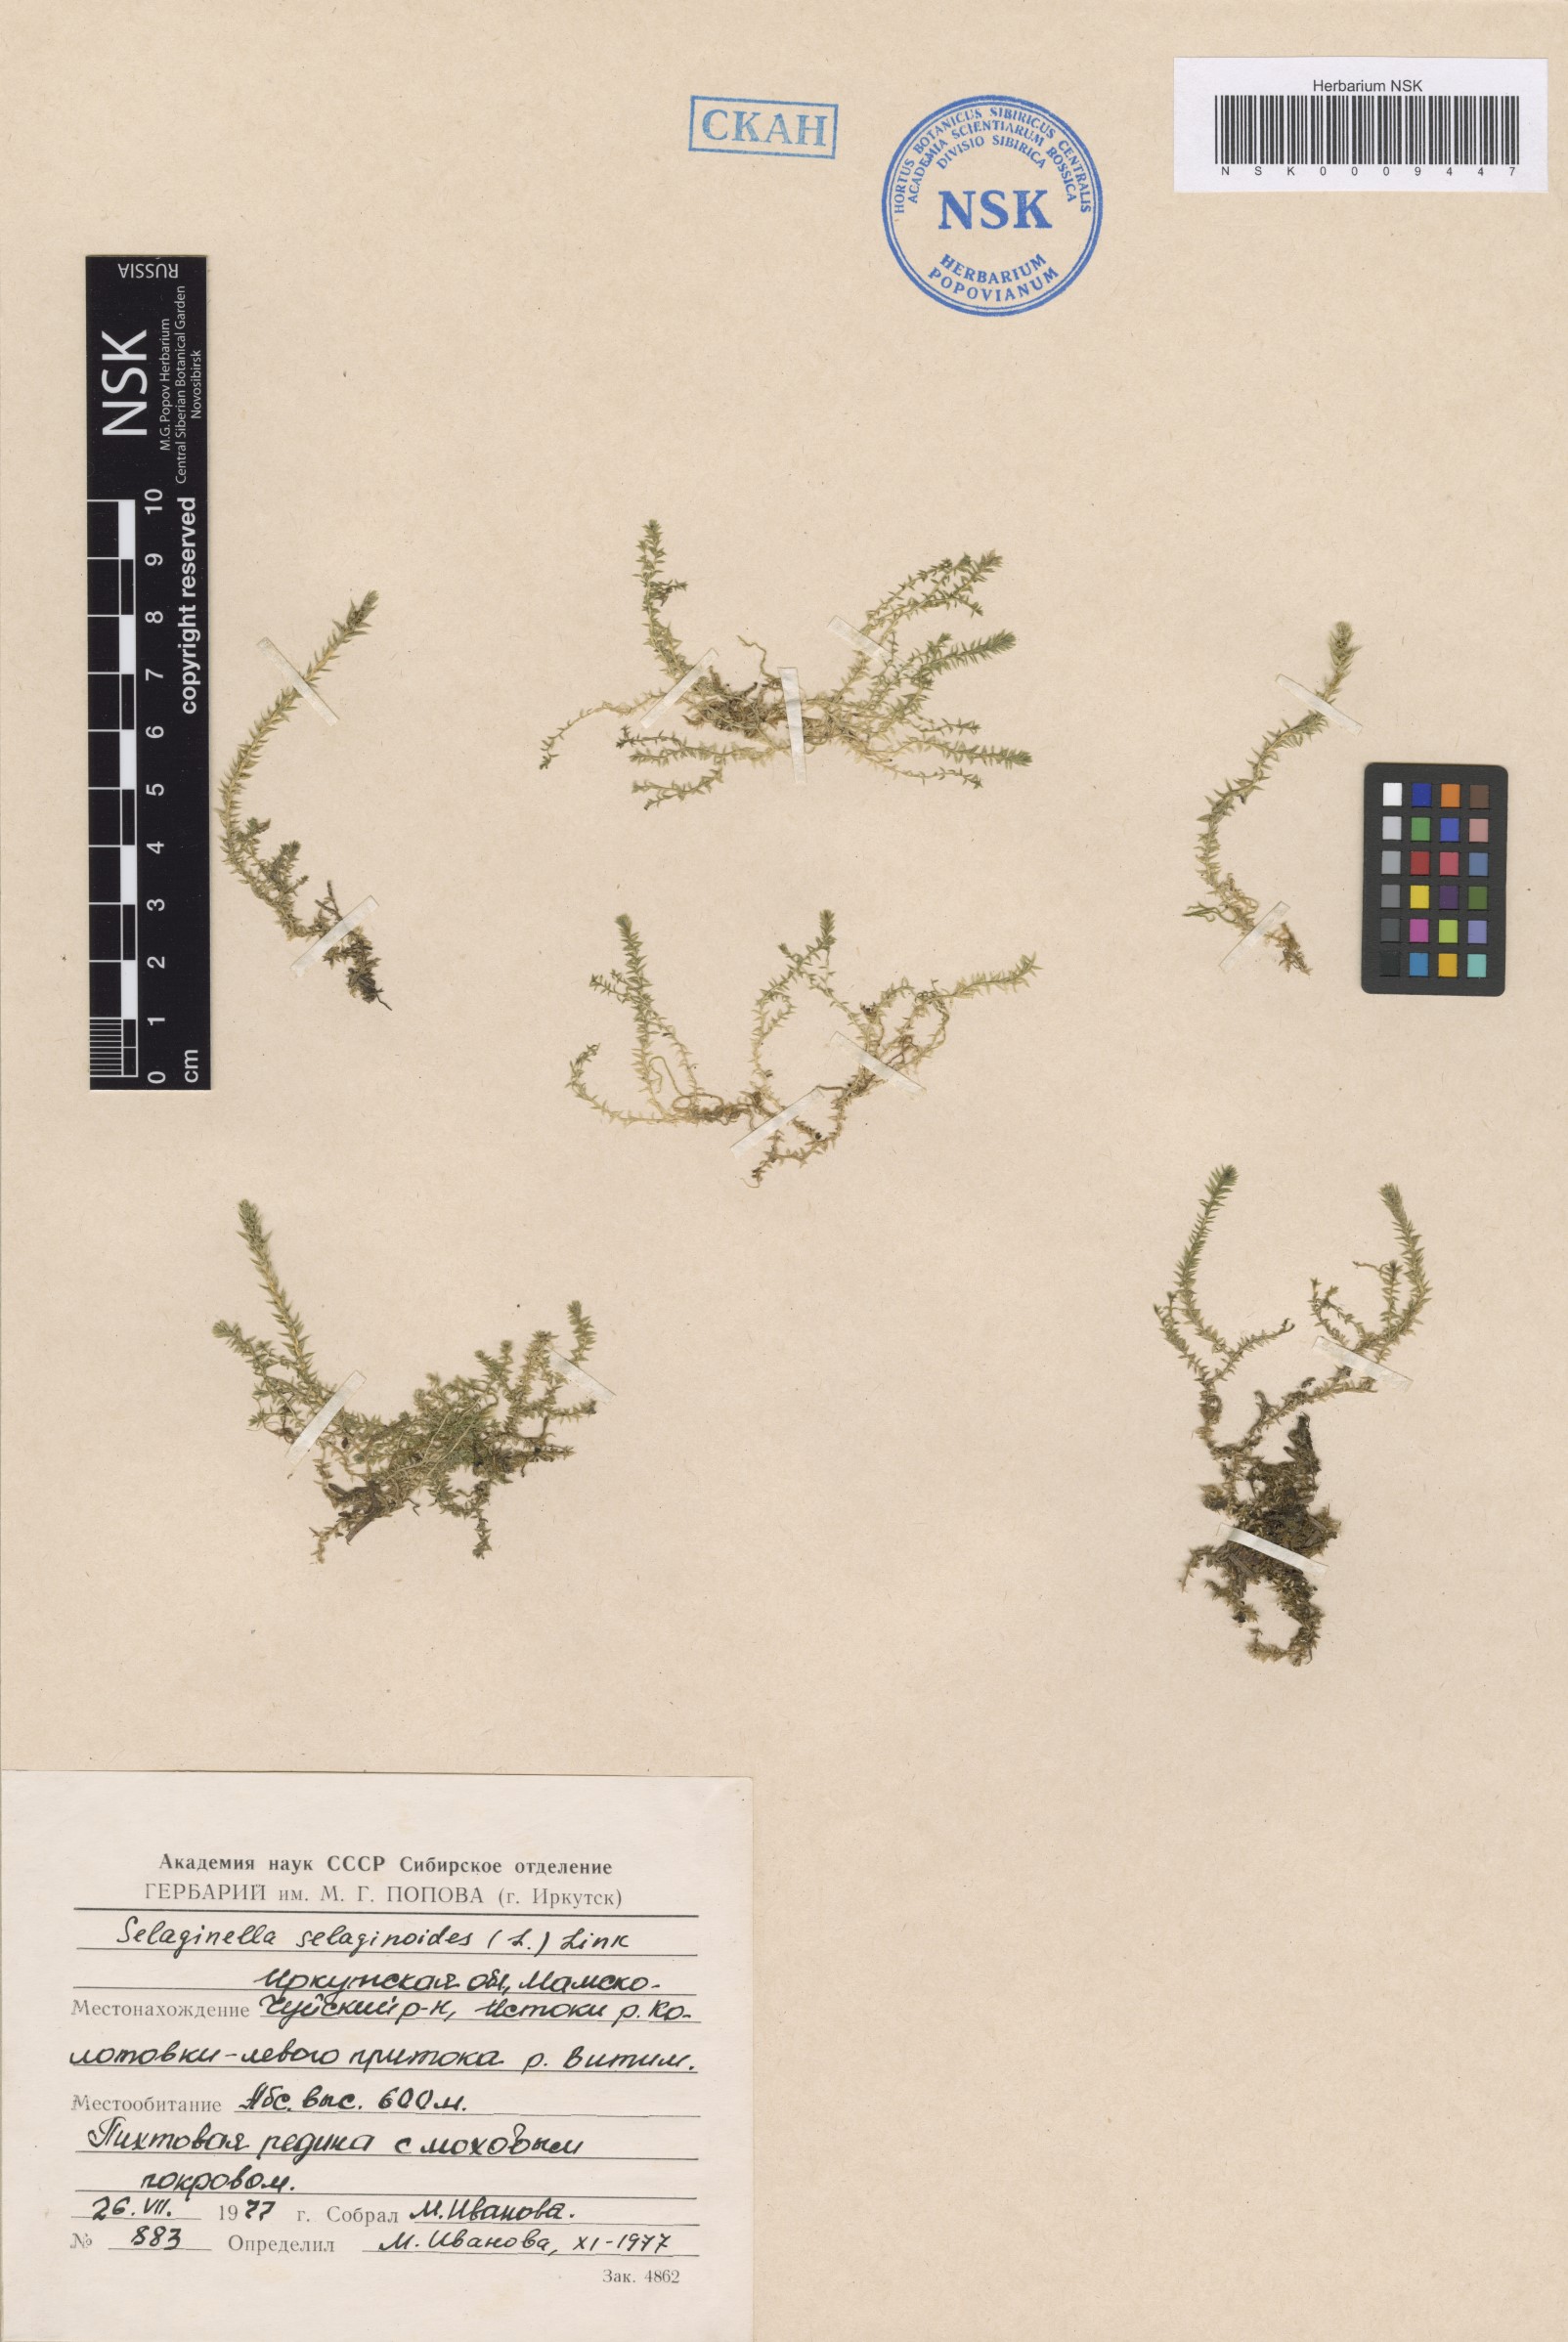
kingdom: Plantae
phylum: Tracheophyta
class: Lycopodiopsida
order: Selaginellales
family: Selaginellaceae
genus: Selaginella
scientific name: Selaginella selaginoides
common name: Prickly mountain-moss
